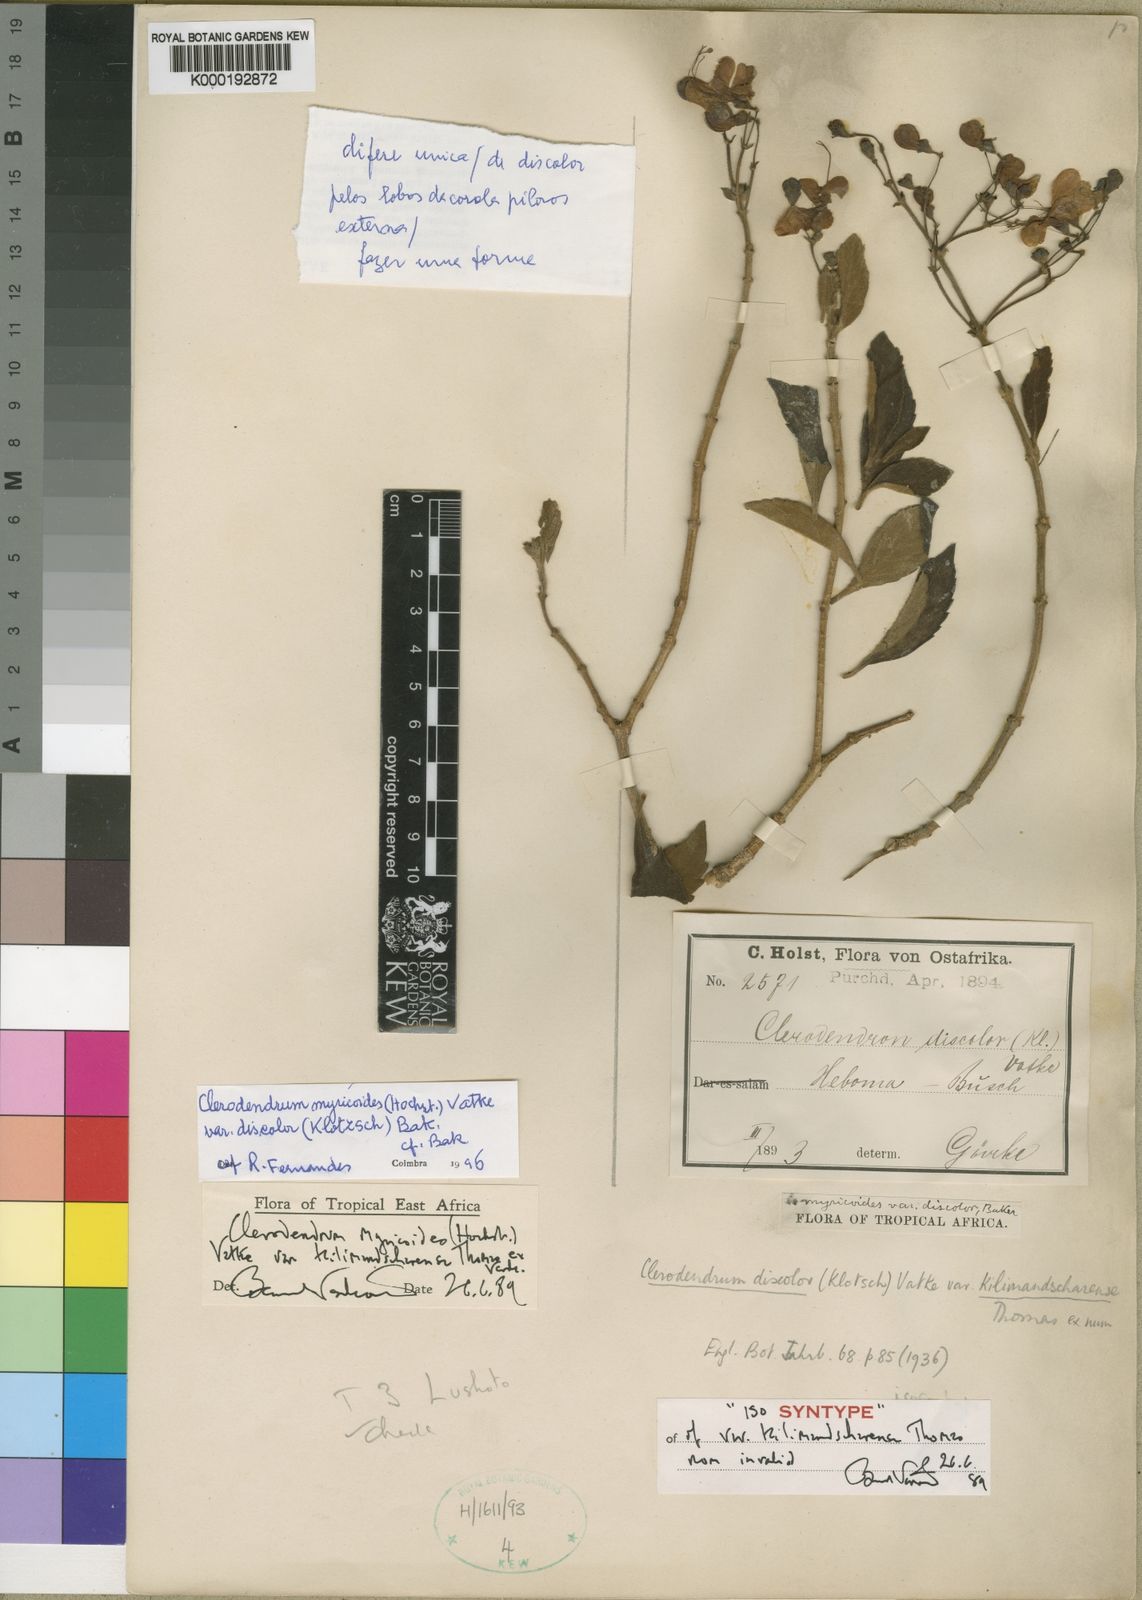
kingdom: Plantae
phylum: Tracheophyta
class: Magnoliopsida
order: Lamiales
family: Lamiaceae
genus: Rotheca
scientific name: Rotheca myricoides
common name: Cats-whiskers
